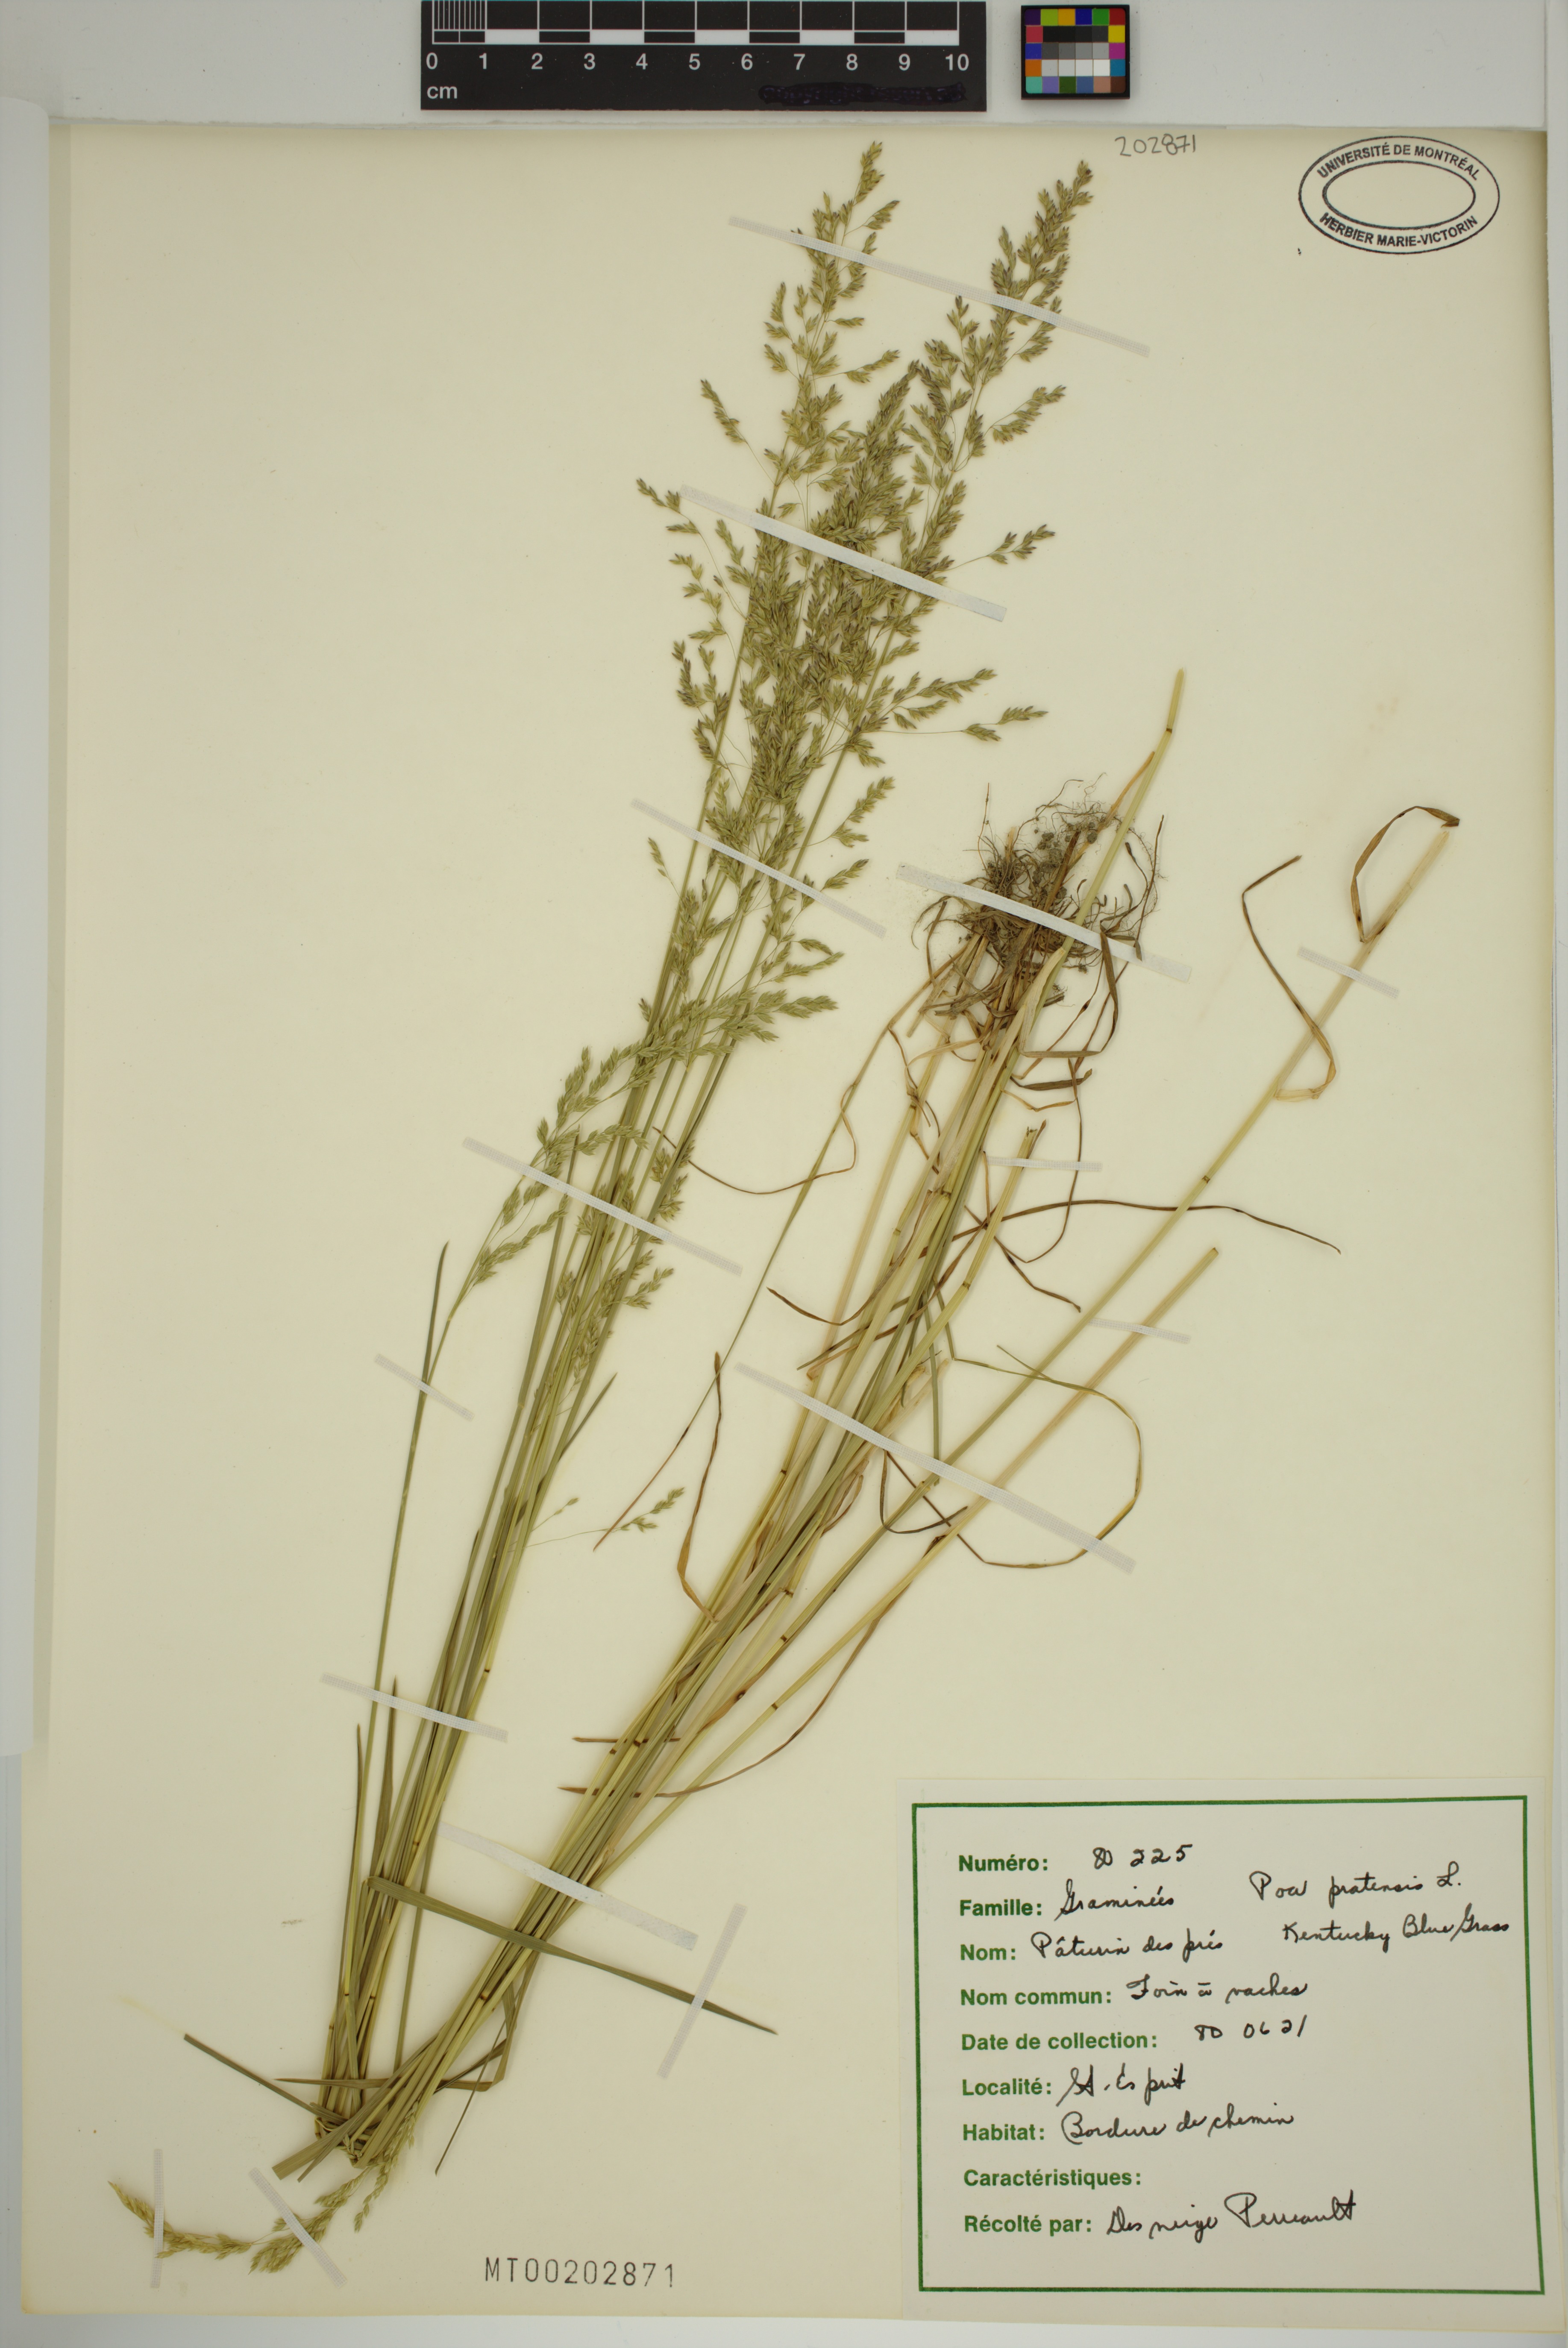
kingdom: Plantae
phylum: Tracheophyta
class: Liliopsida
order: Poales
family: Poaceae
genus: Poa
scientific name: Poa pratensis
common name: Kentucky bluegrass
